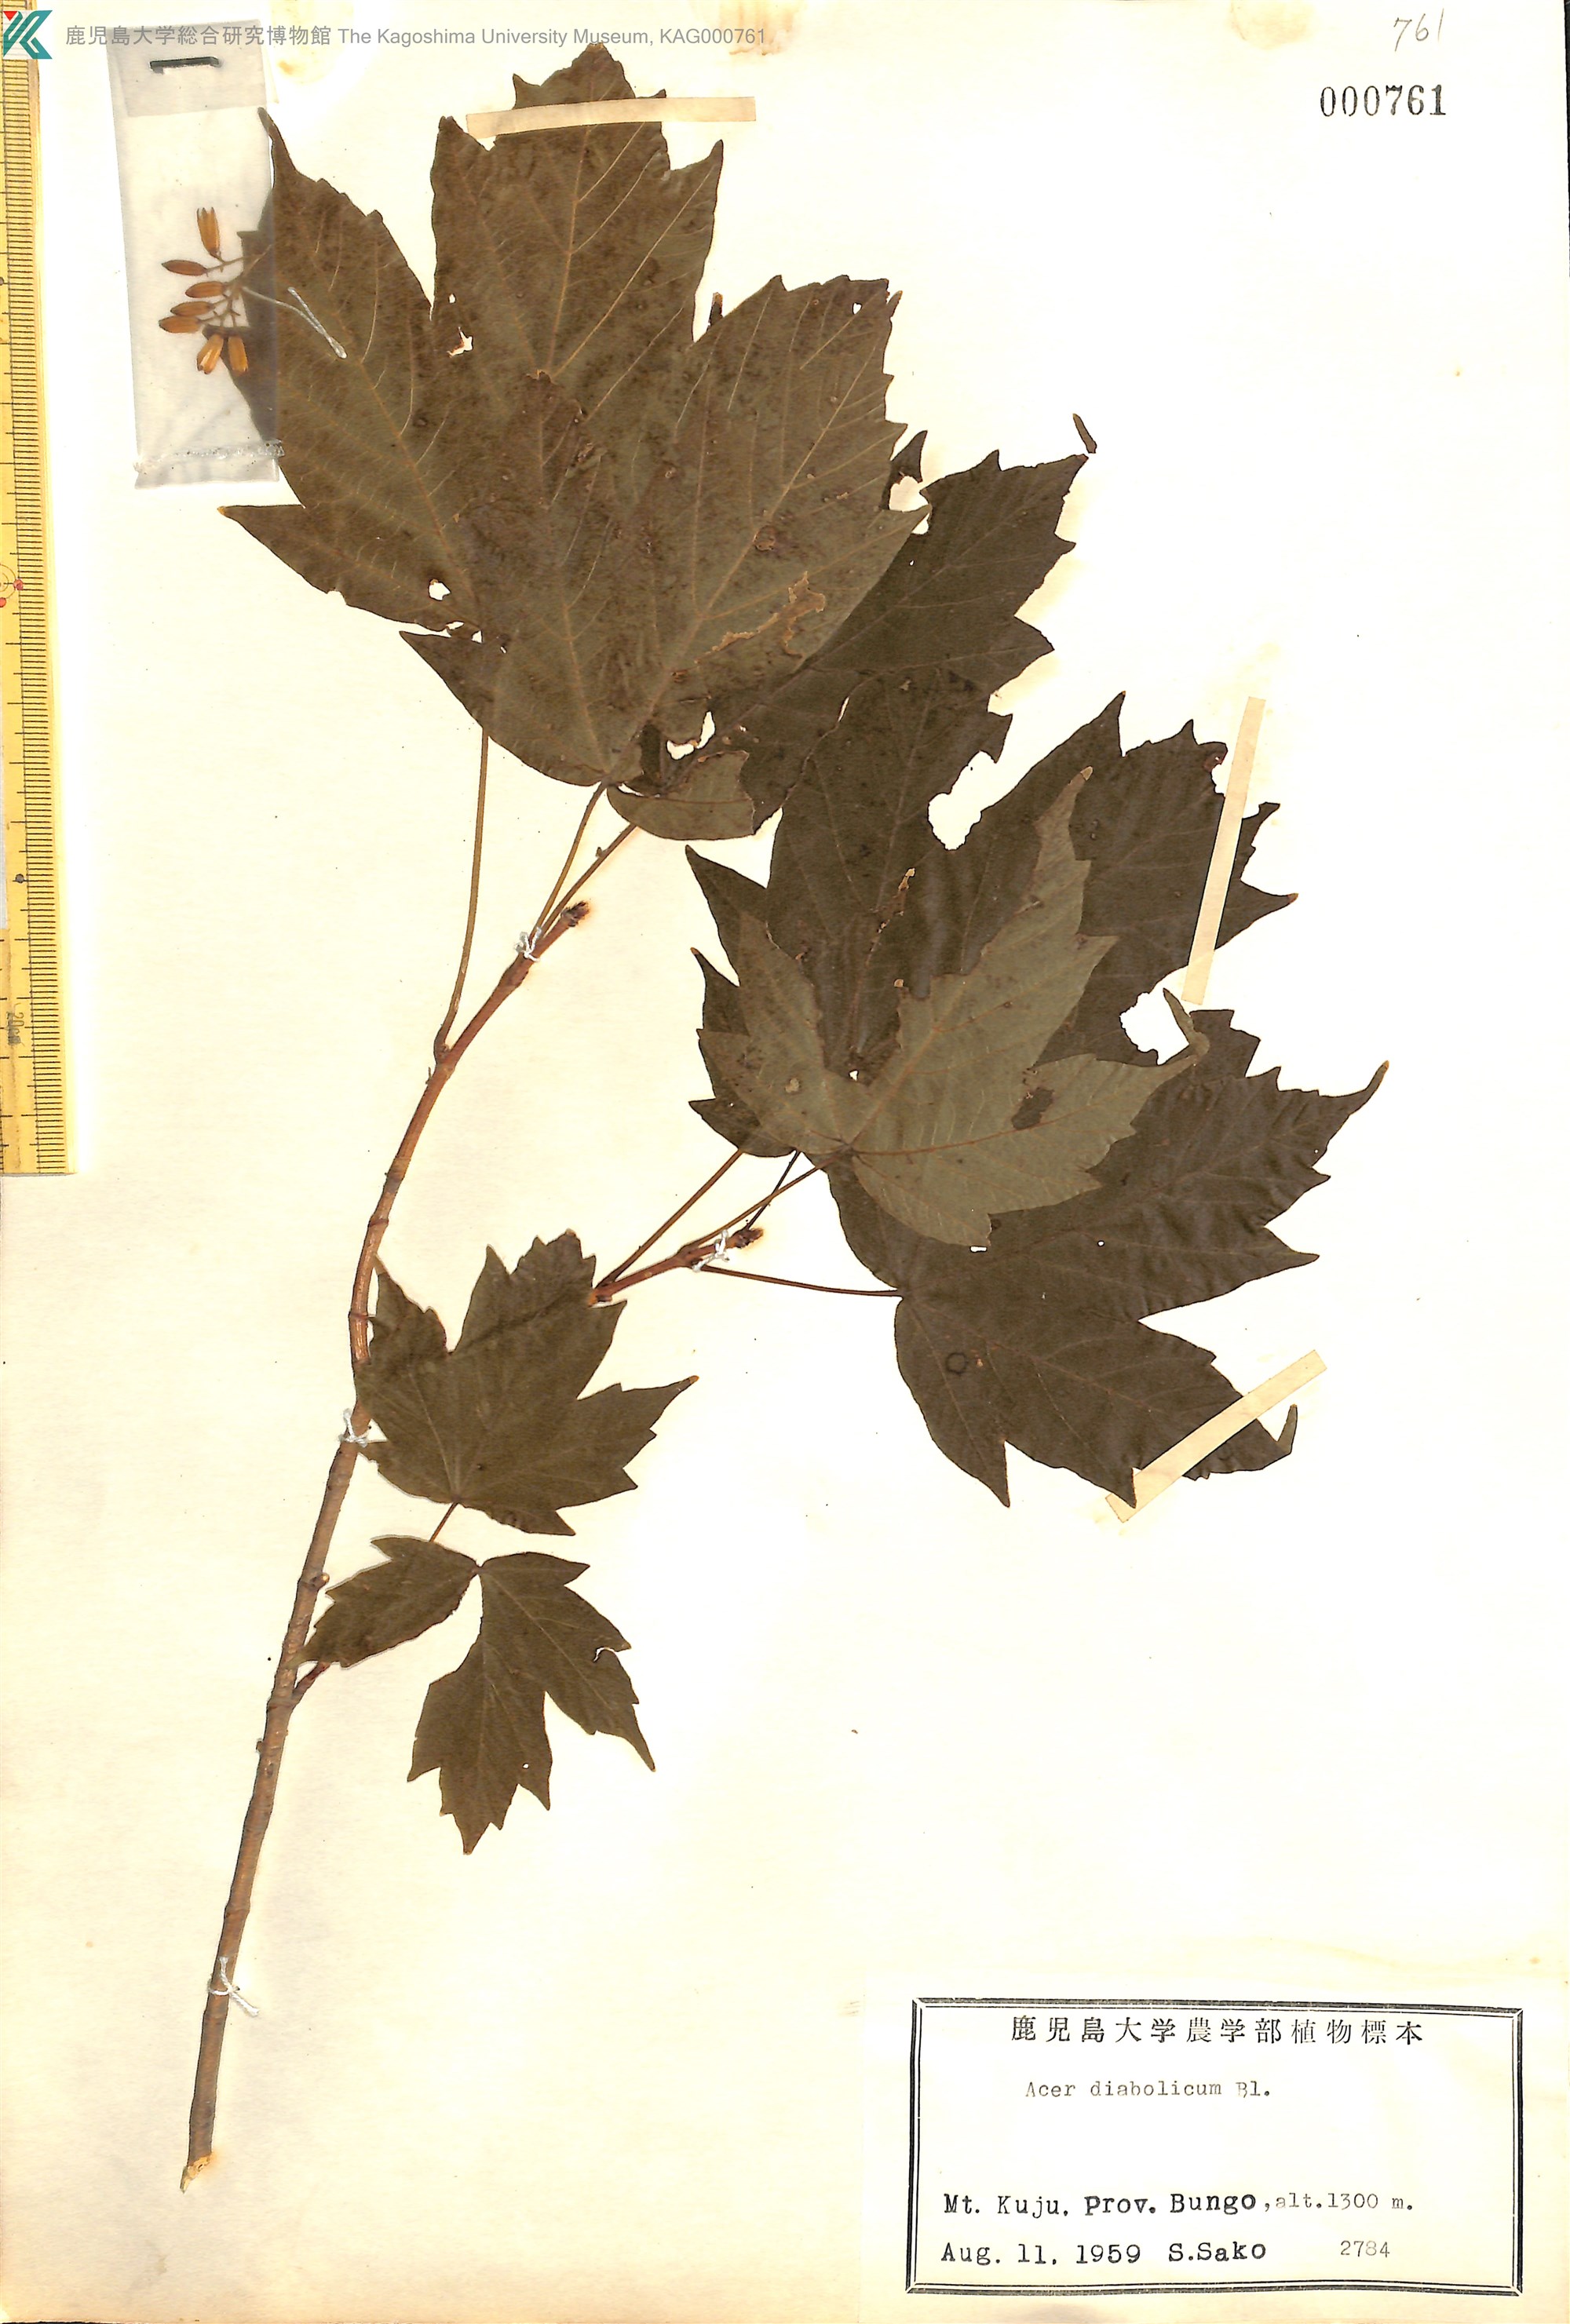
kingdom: Plantae
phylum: Tracheophyta
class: Magnoliopsida
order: Sapindales
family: Sapindaceae
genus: Acer
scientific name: Acer diabolicum
